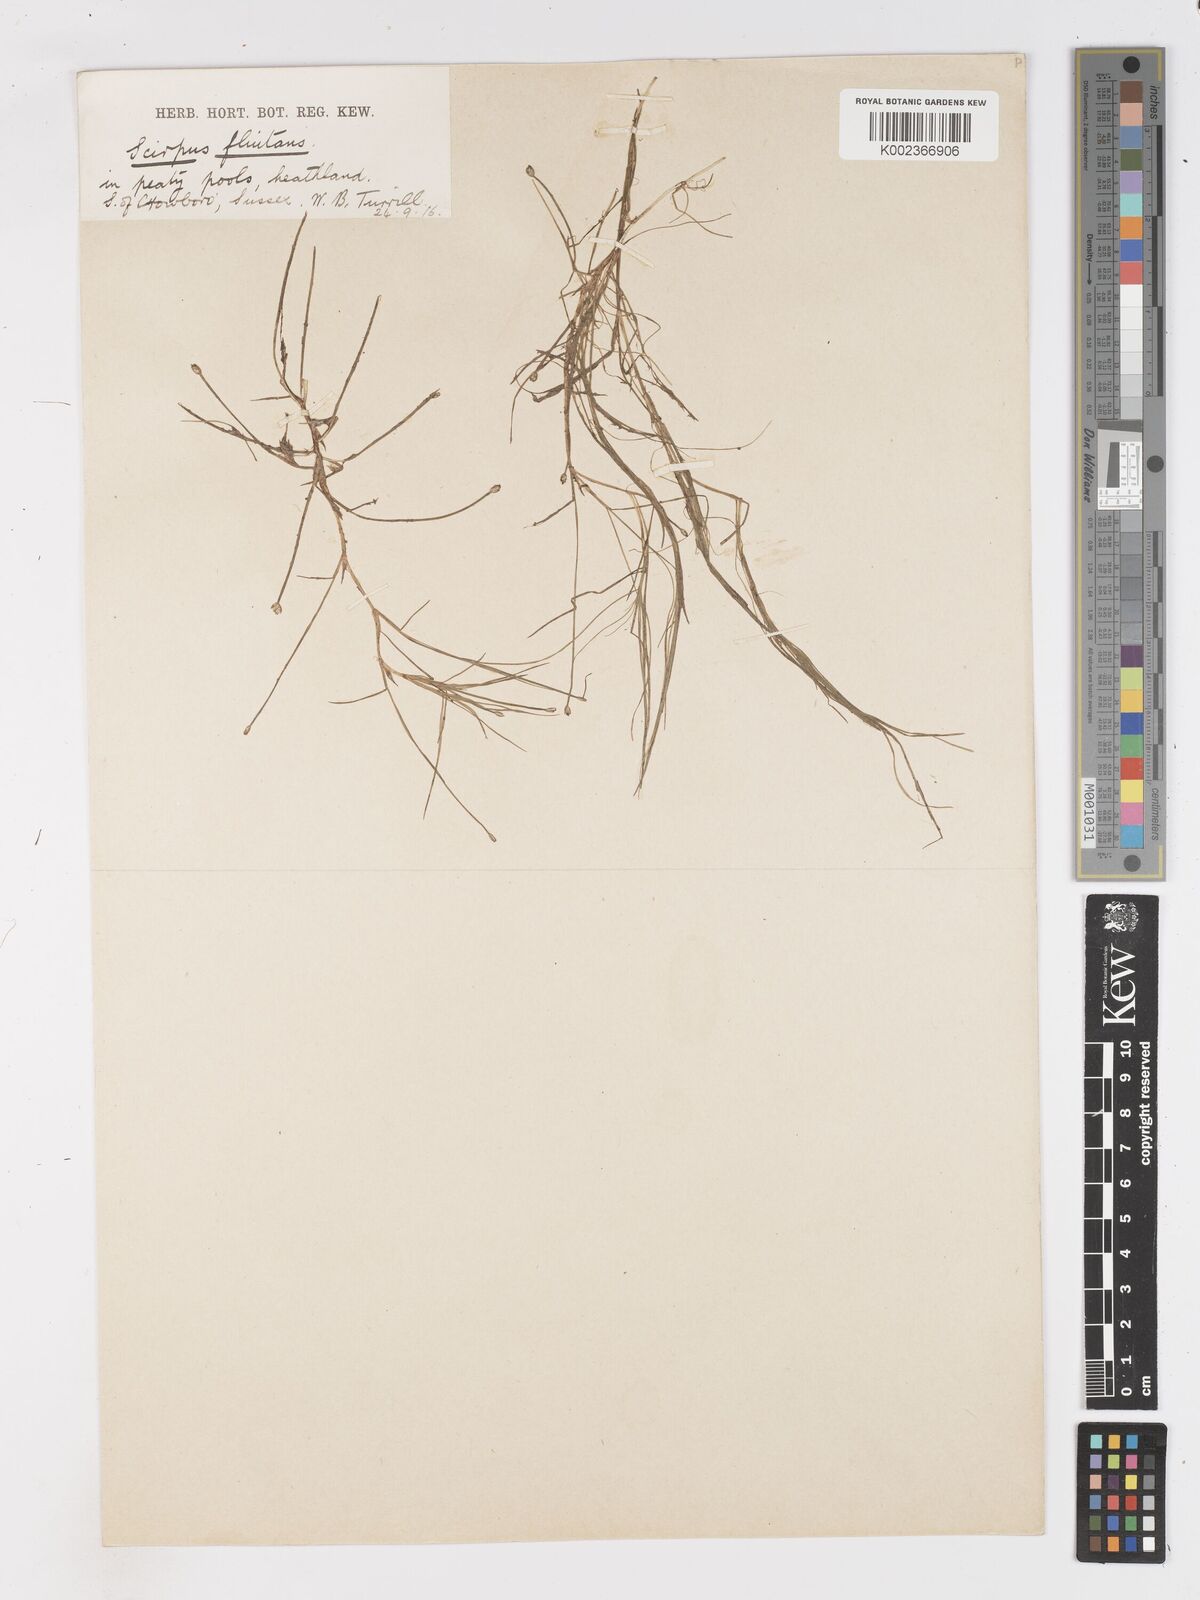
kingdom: Plantae
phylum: Tracheophyta
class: Liliopsida
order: Poales
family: Cyperaceae
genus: Isolepis
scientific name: Isolepis fluitans
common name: Floating club-rush
